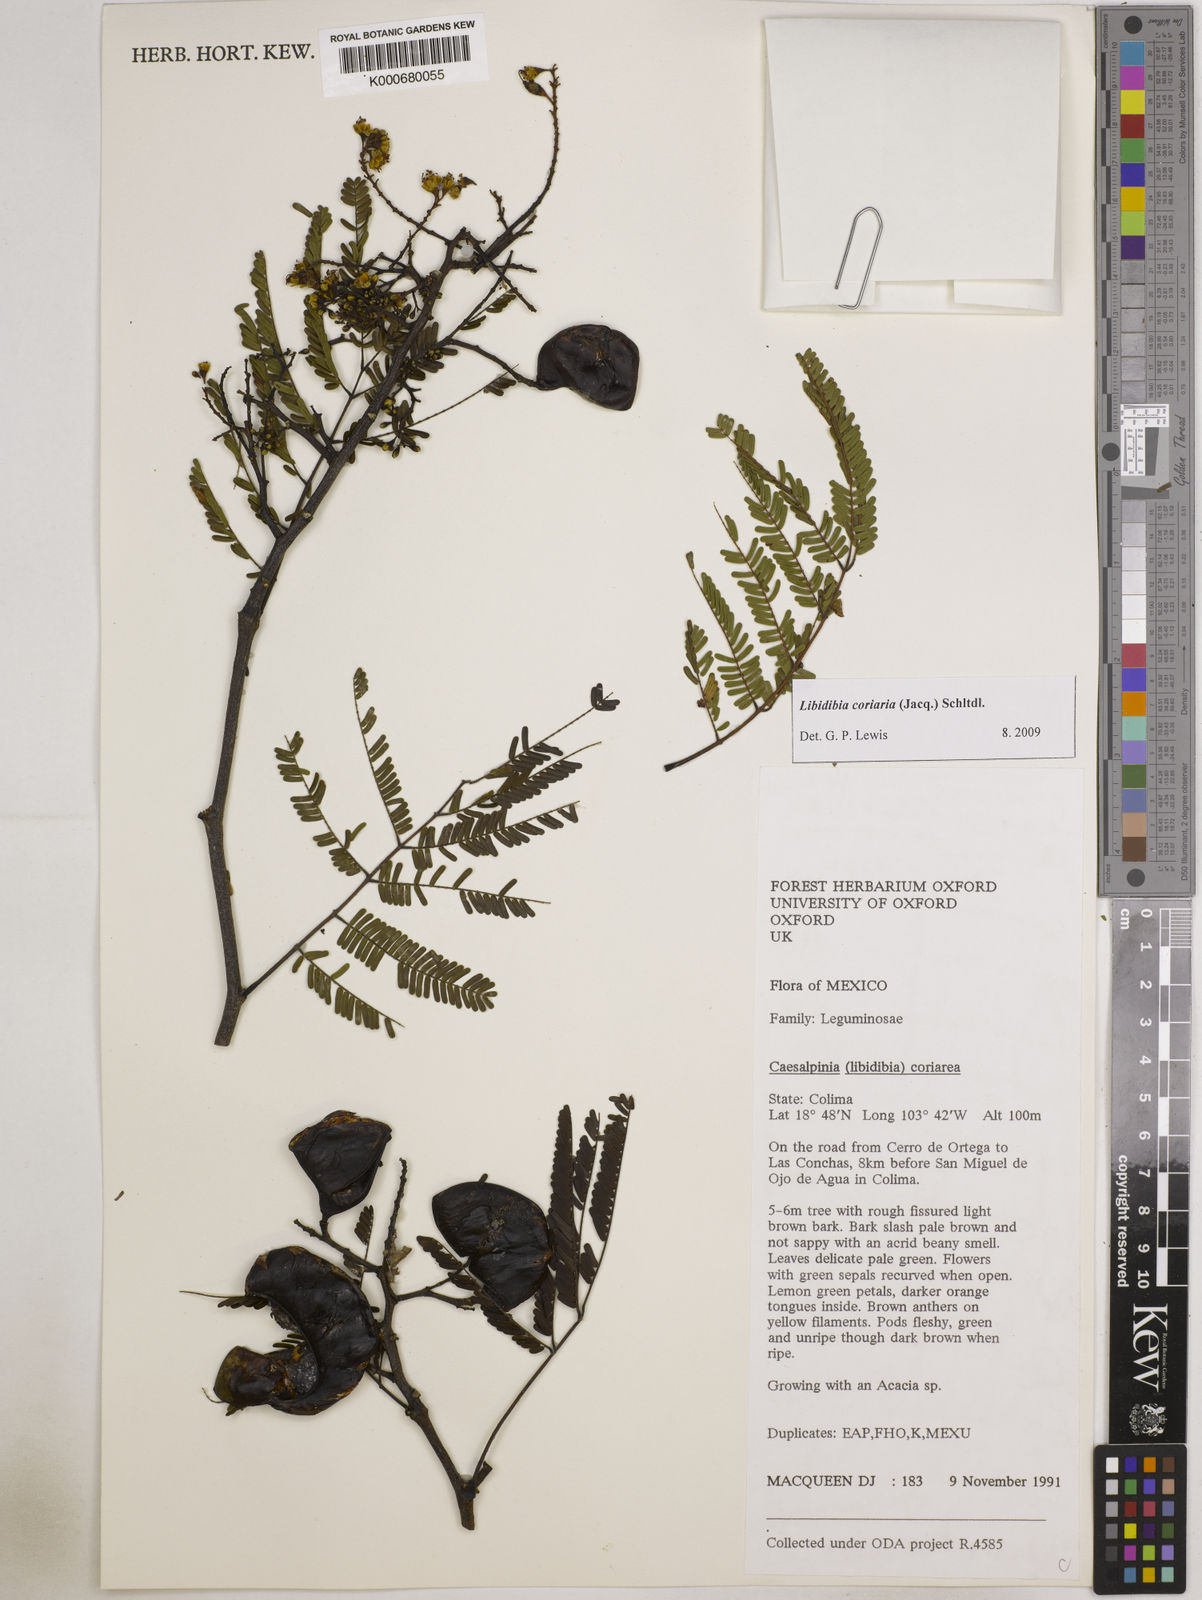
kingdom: Plantae
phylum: Tracheophyta
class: Magnoliopsida
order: Fabales
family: Fabaceae
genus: Libidibia
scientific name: Libidibia coriaria
